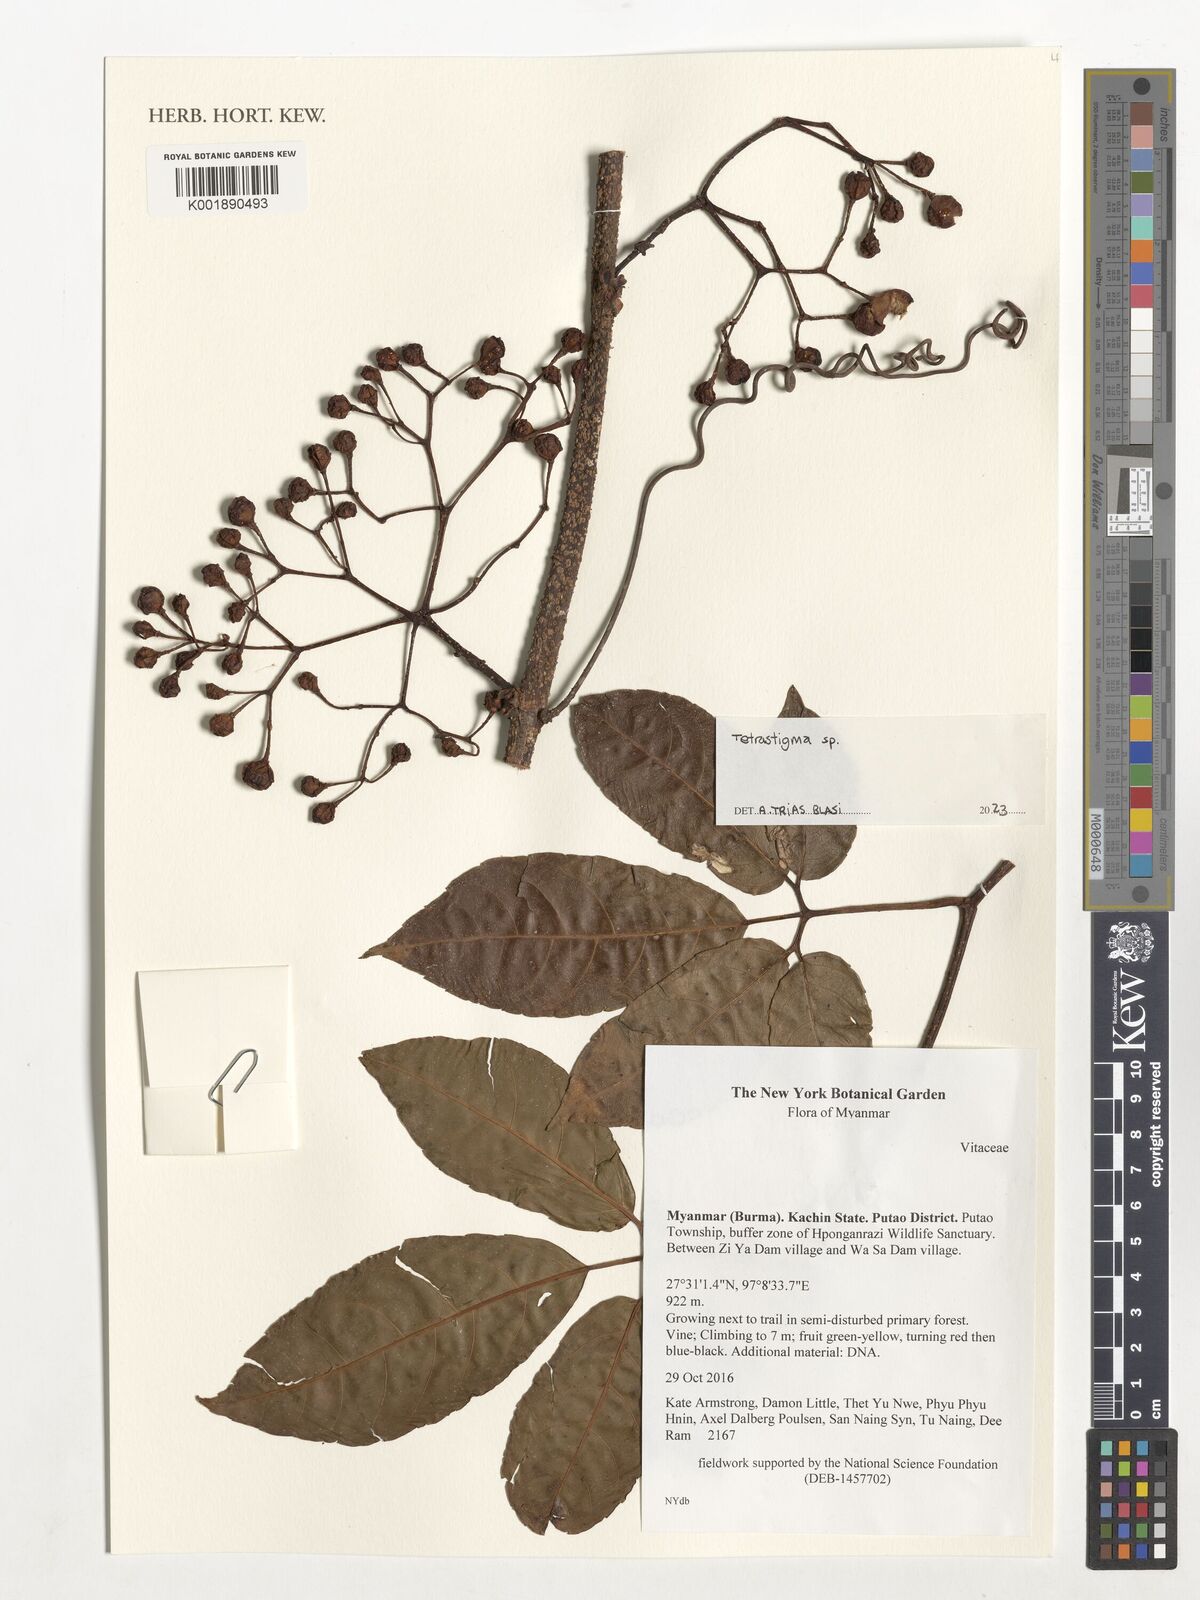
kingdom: Plantae
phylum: Tracheophyta
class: Magnoliopsida
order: Vitales
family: Vitaceae
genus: Tetrastigma
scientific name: Tetrastigma
